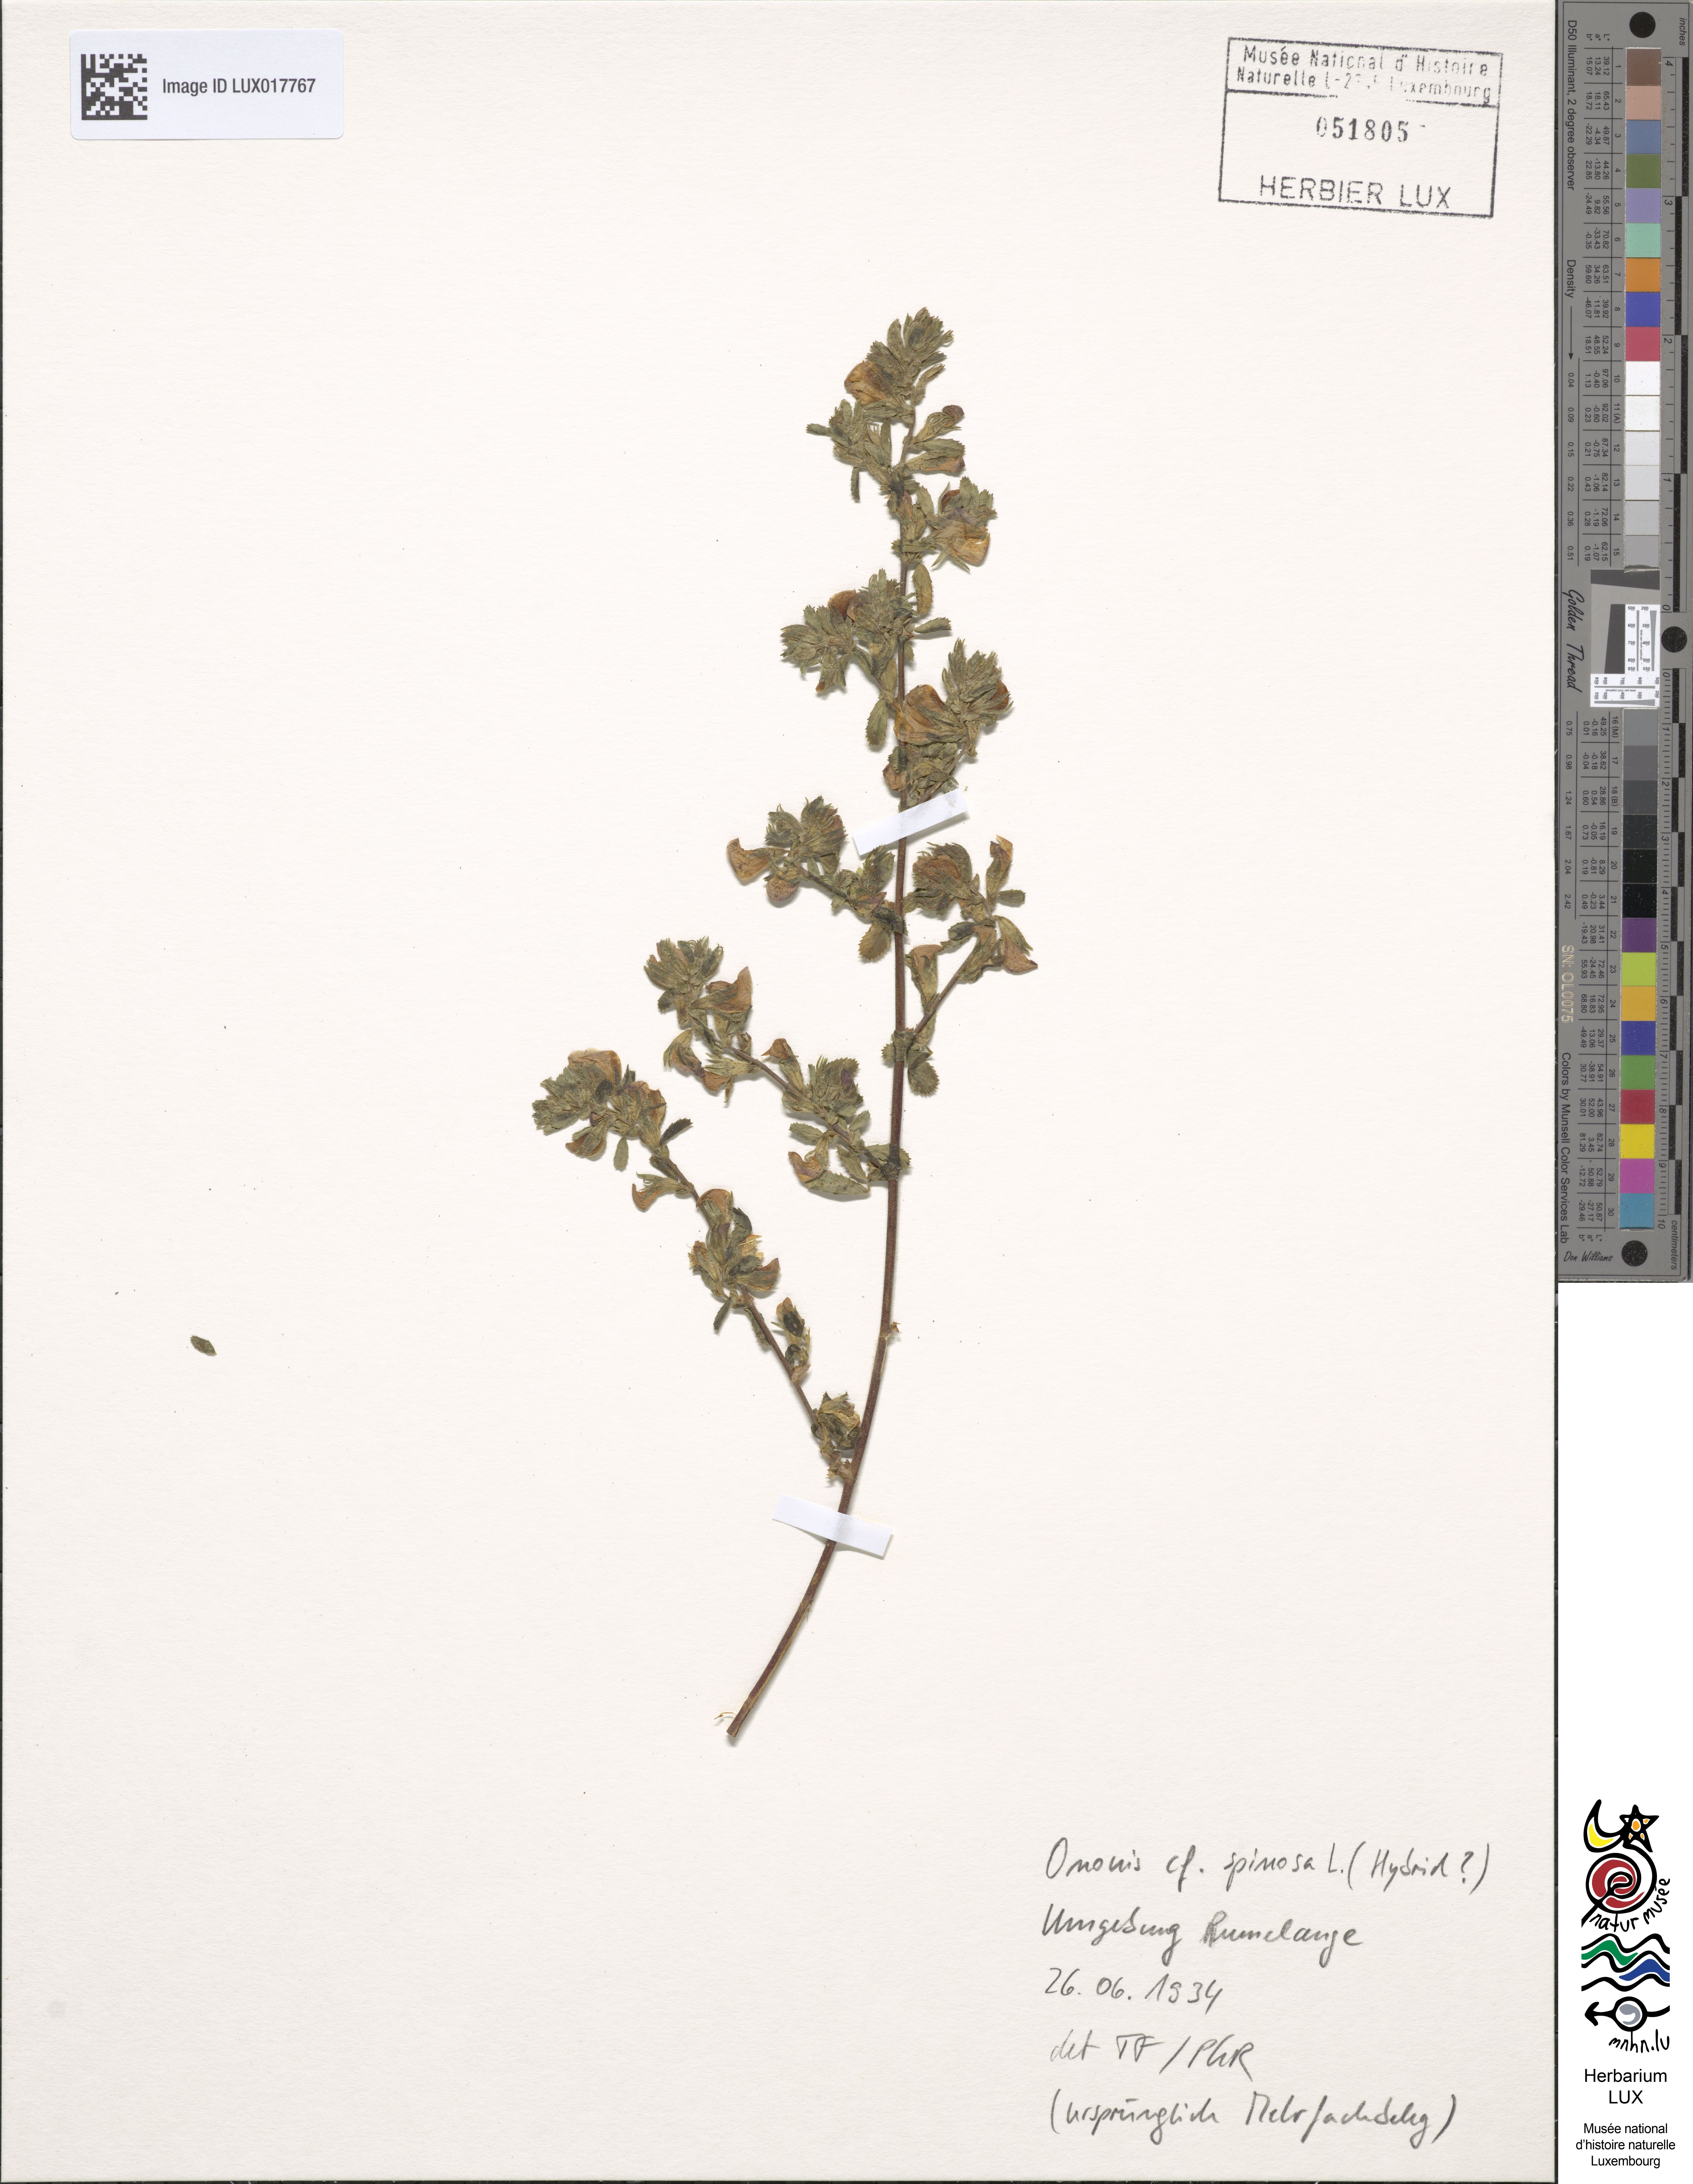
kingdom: Plantae
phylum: Tracheophyta
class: Magnoliopsida
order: Fabales
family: Fabaceae
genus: Ononis
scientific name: Ononis spinosa
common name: Spiny restharrow
